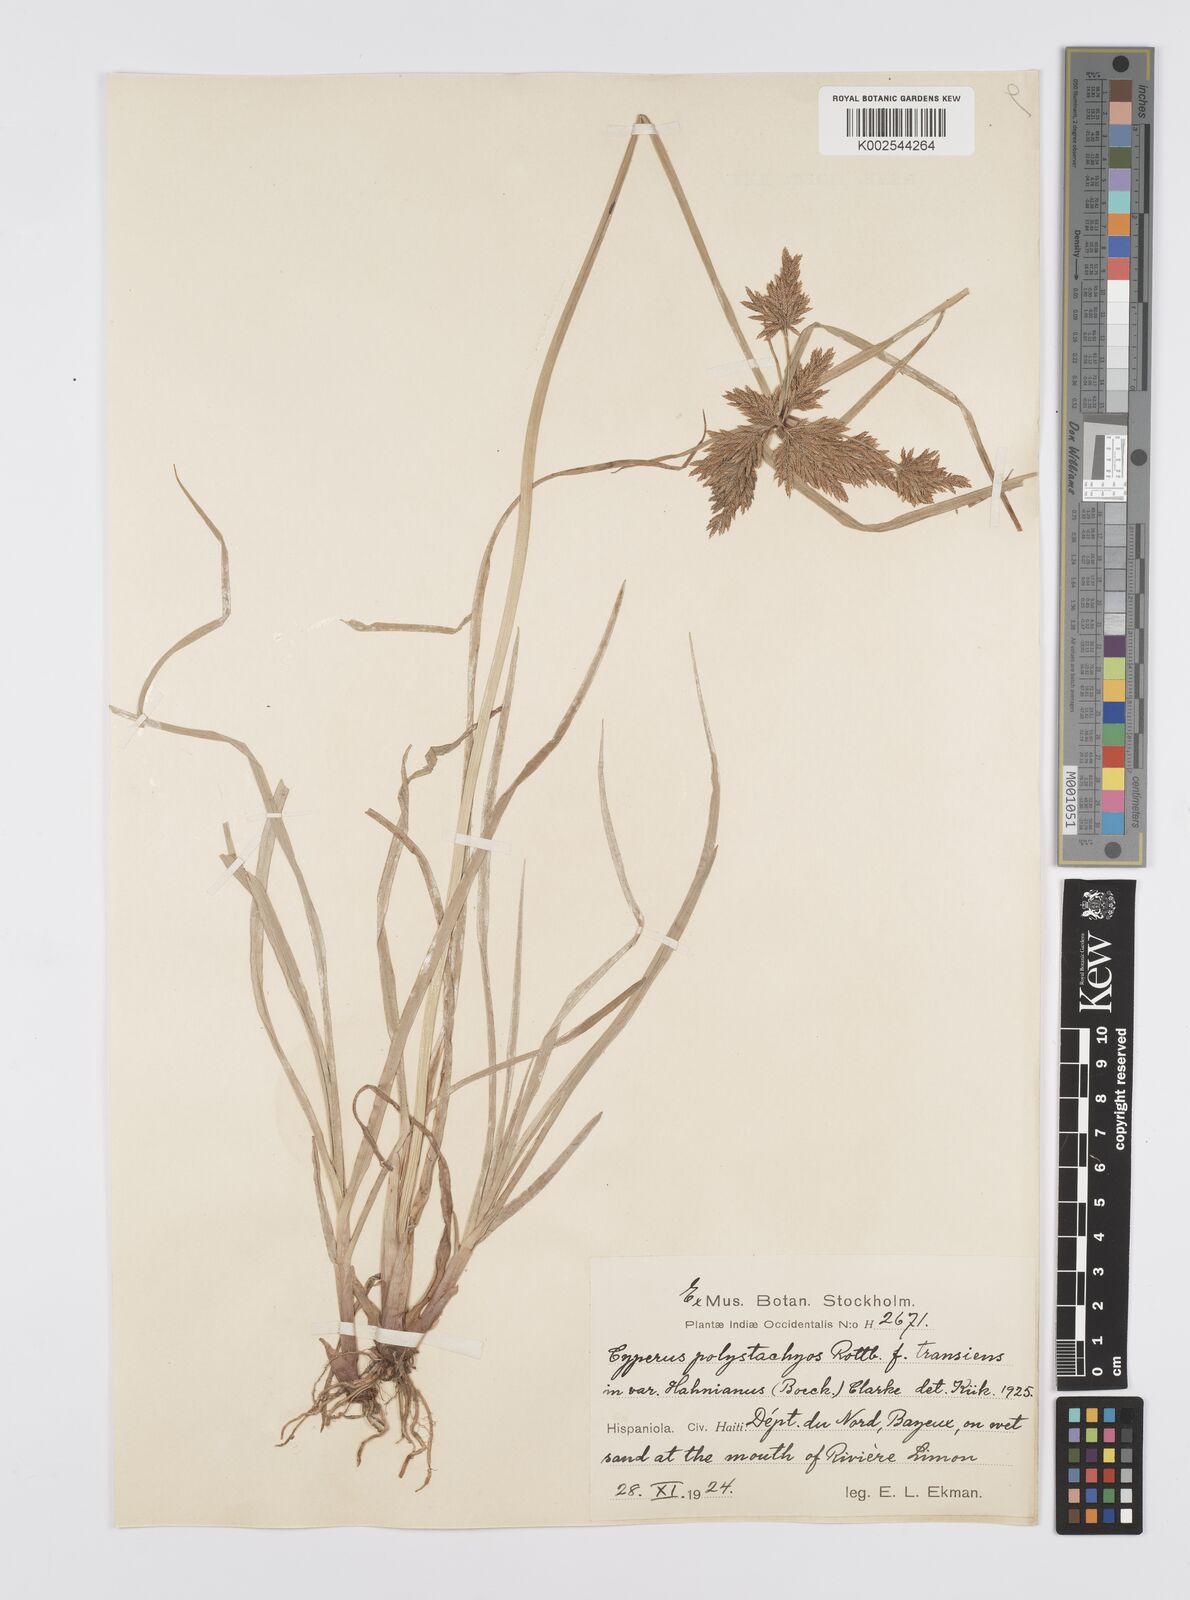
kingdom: Plantae
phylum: Tracheophyta
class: Liliopsida
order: Poales
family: Cyperaceae
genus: Cyperus
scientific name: Cyperus polystachyos
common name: Bunchy flat sedge
